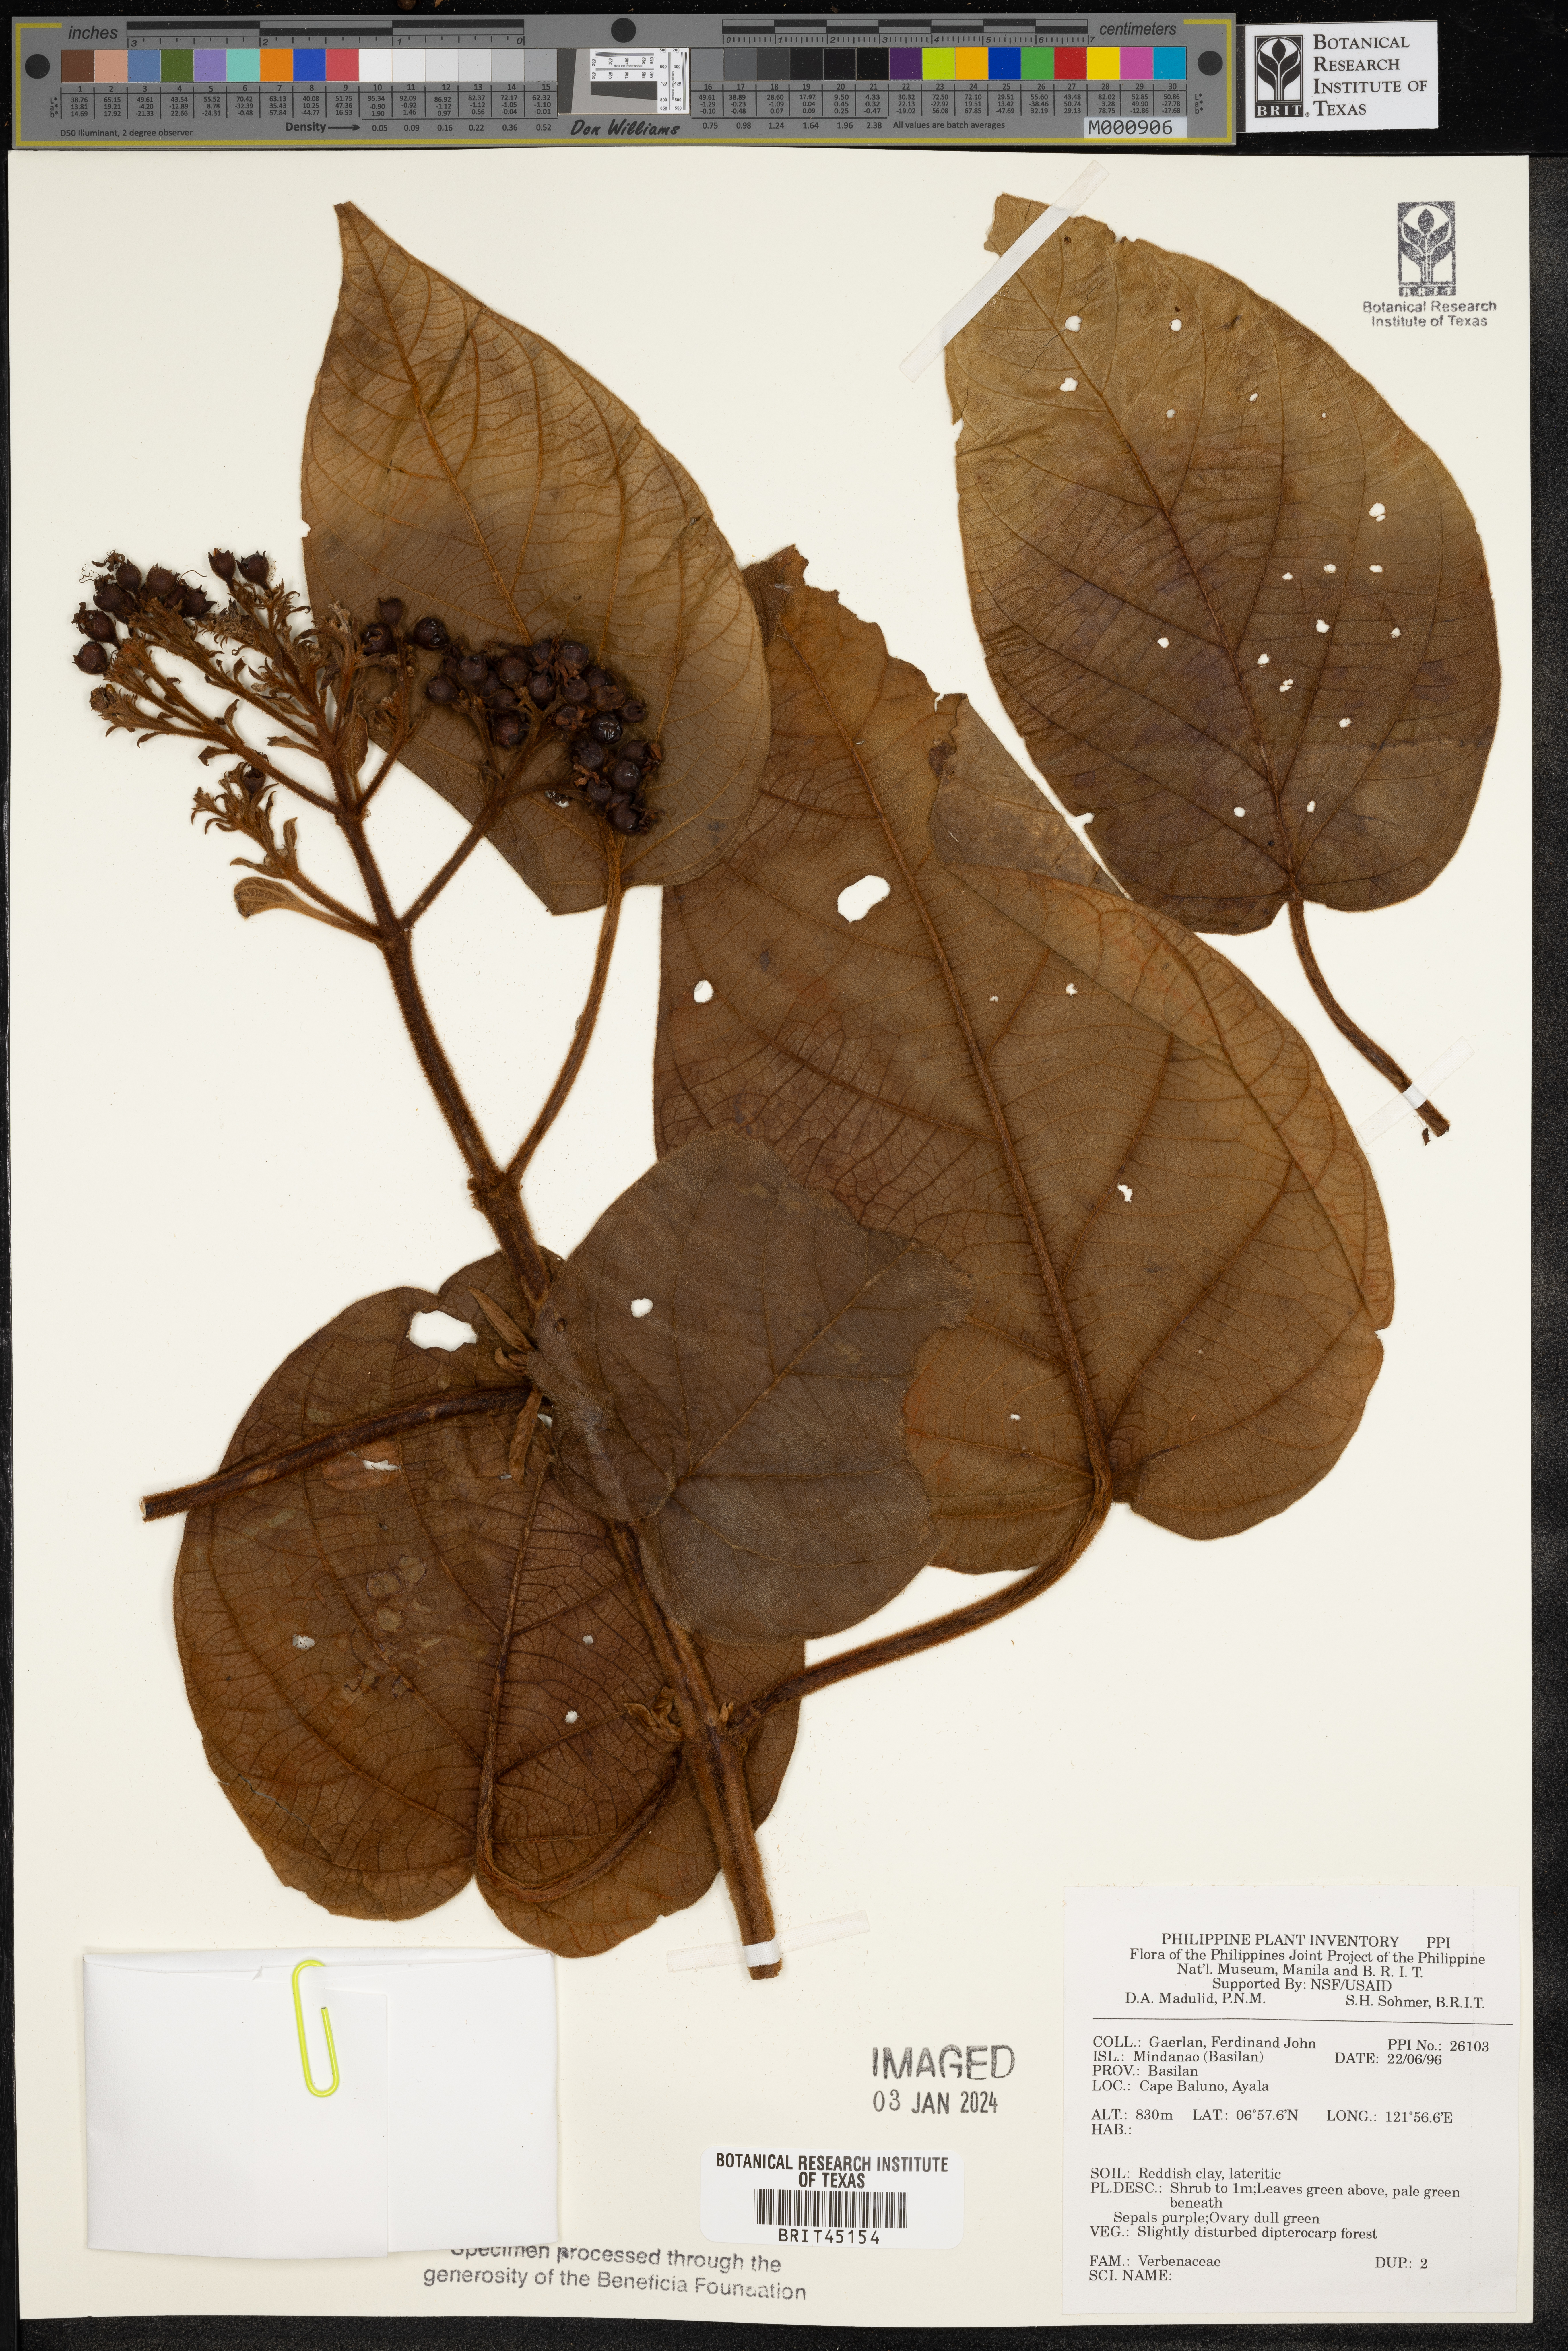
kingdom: Plantae
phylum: Tracheophyta
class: Magnoliopsida
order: Lamiales
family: Verbenaceae
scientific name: Verbenaceae
